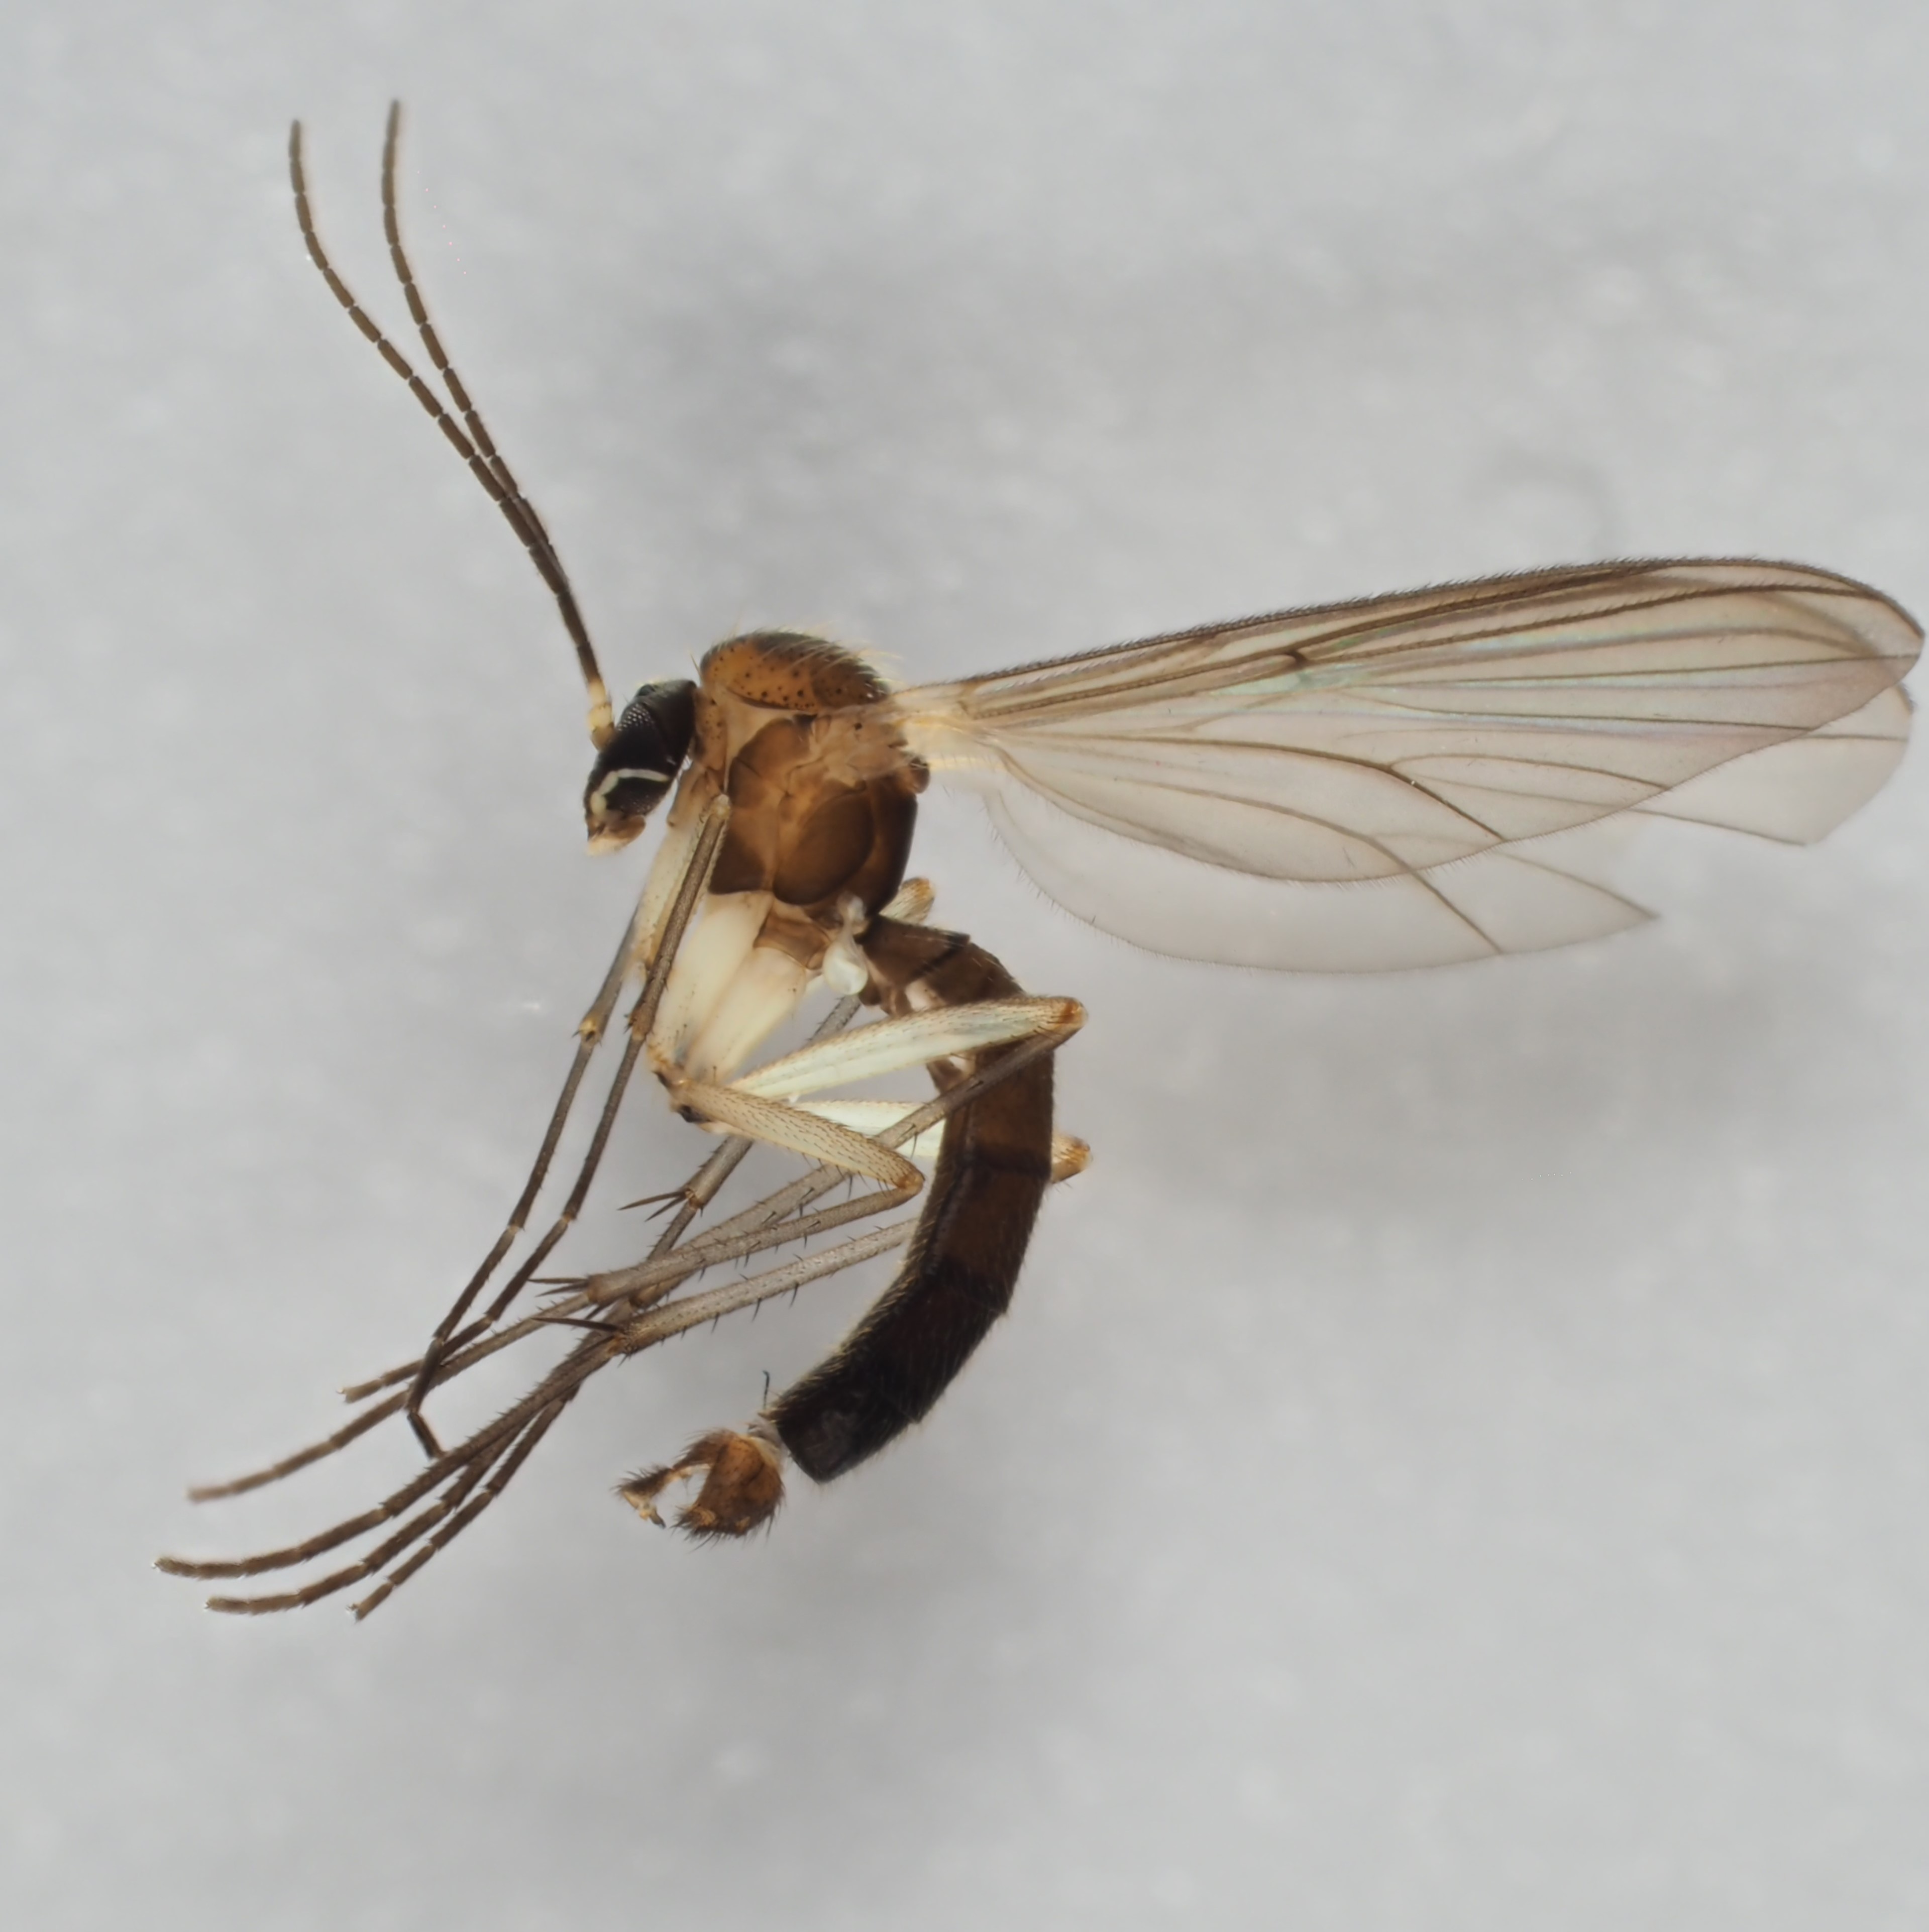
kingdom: Animalia
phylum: Arthropoda
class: Insecta
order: Diptera
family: Mycetophilidae
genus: Coelosia
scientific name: Coelosia fusca
